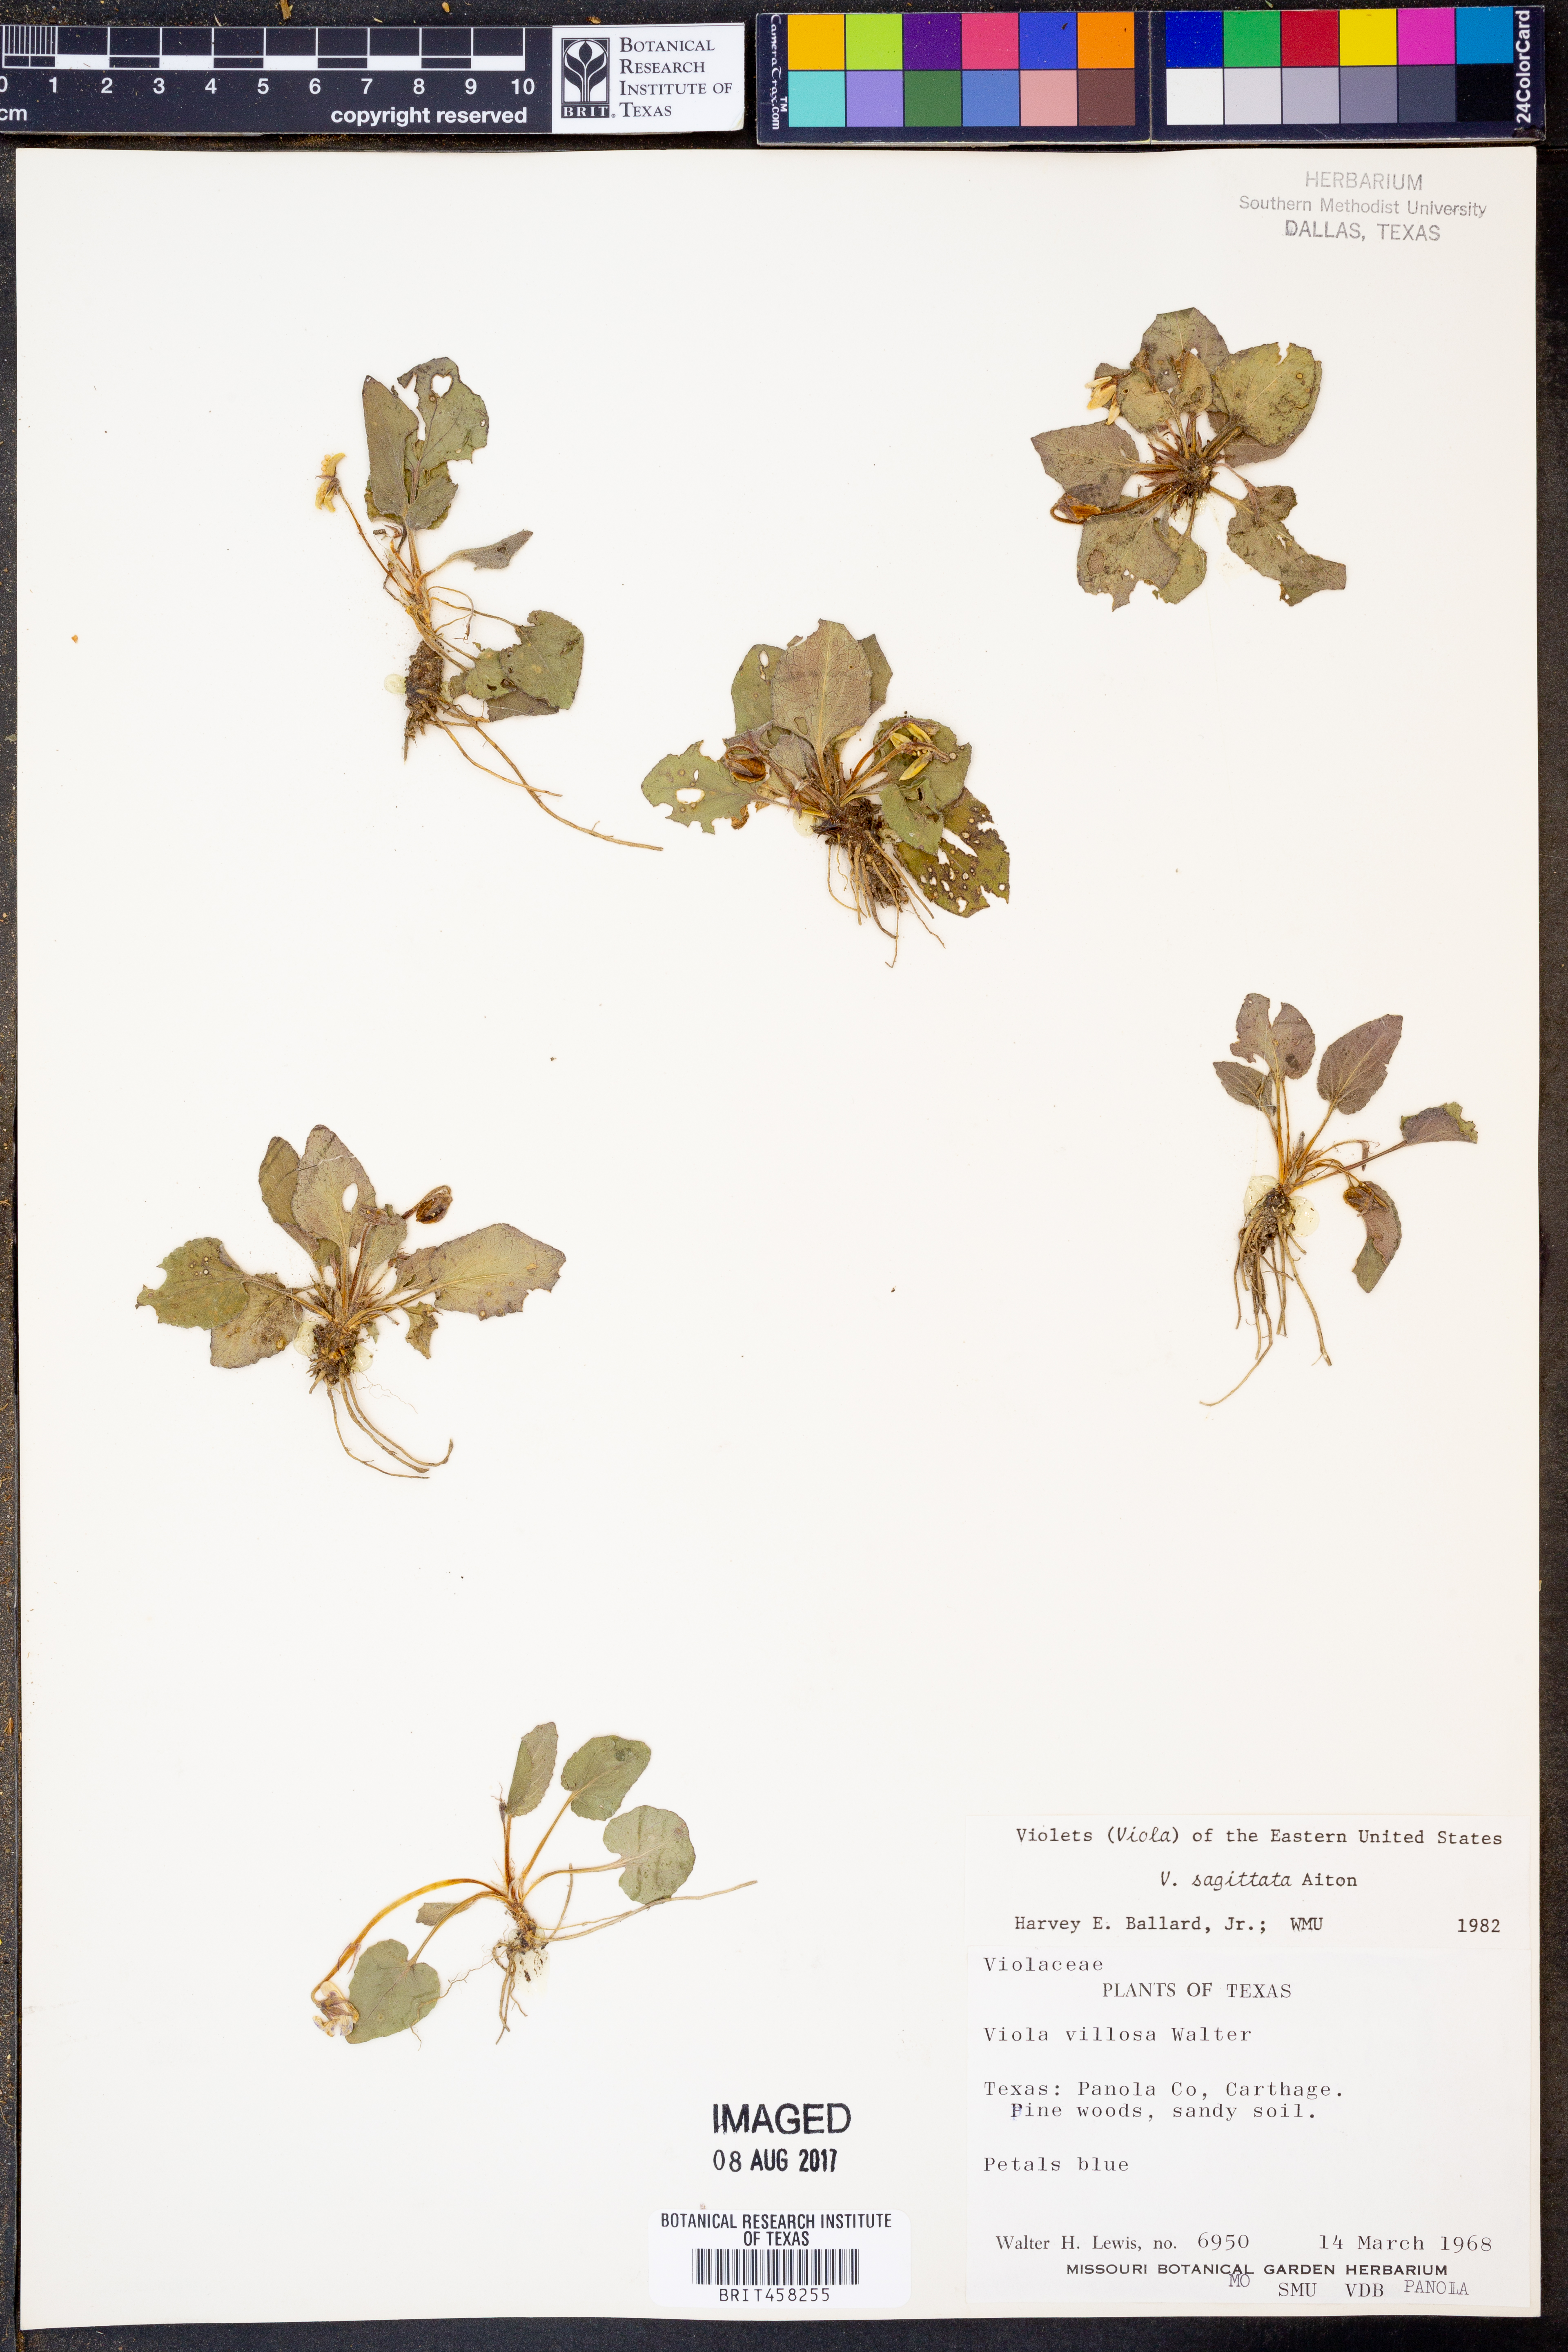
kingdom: Plantae
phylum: Tracheophyta
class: Magnoliopsida
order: Malpighiales
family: Violaceae
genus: Viola
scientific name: Viola sagittata
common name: Arrowhead violet
